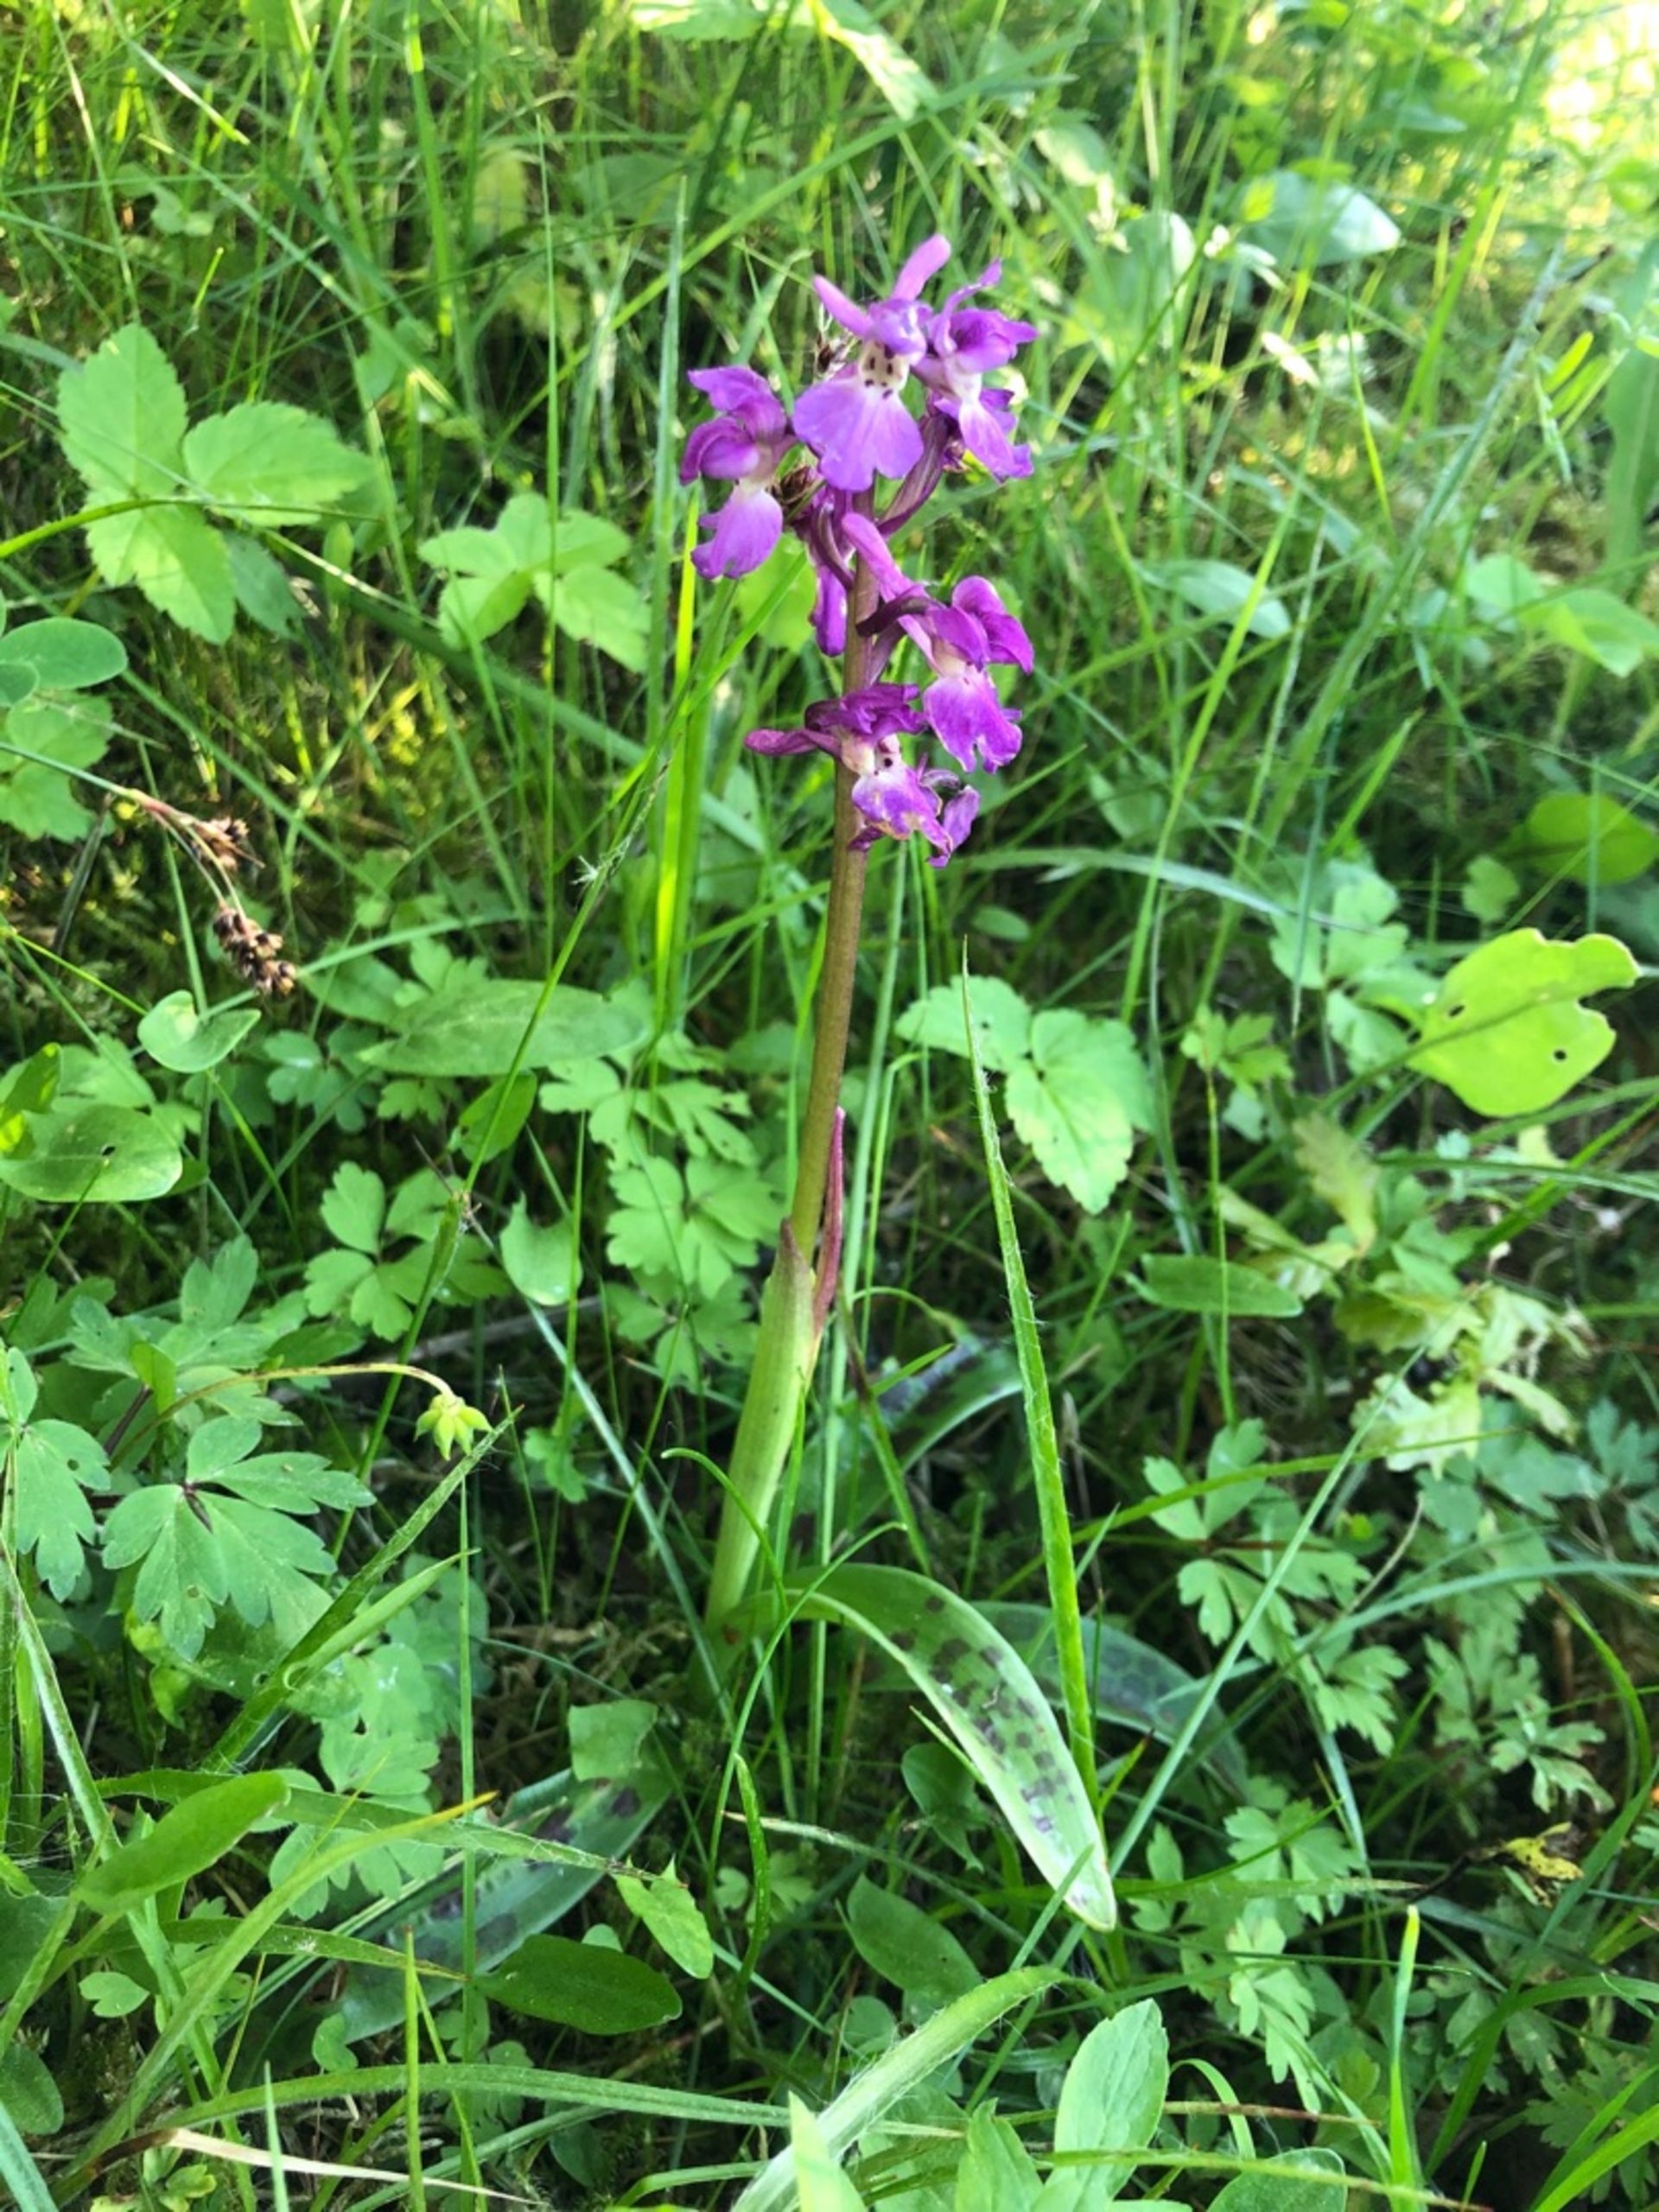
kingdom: Plantae
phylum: Tracheophyta
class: Liliopsida
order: Asparagales
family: Orchidaceae
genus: Orchis
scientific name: Orchis mascula
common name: Tyndakset gøgeurt
